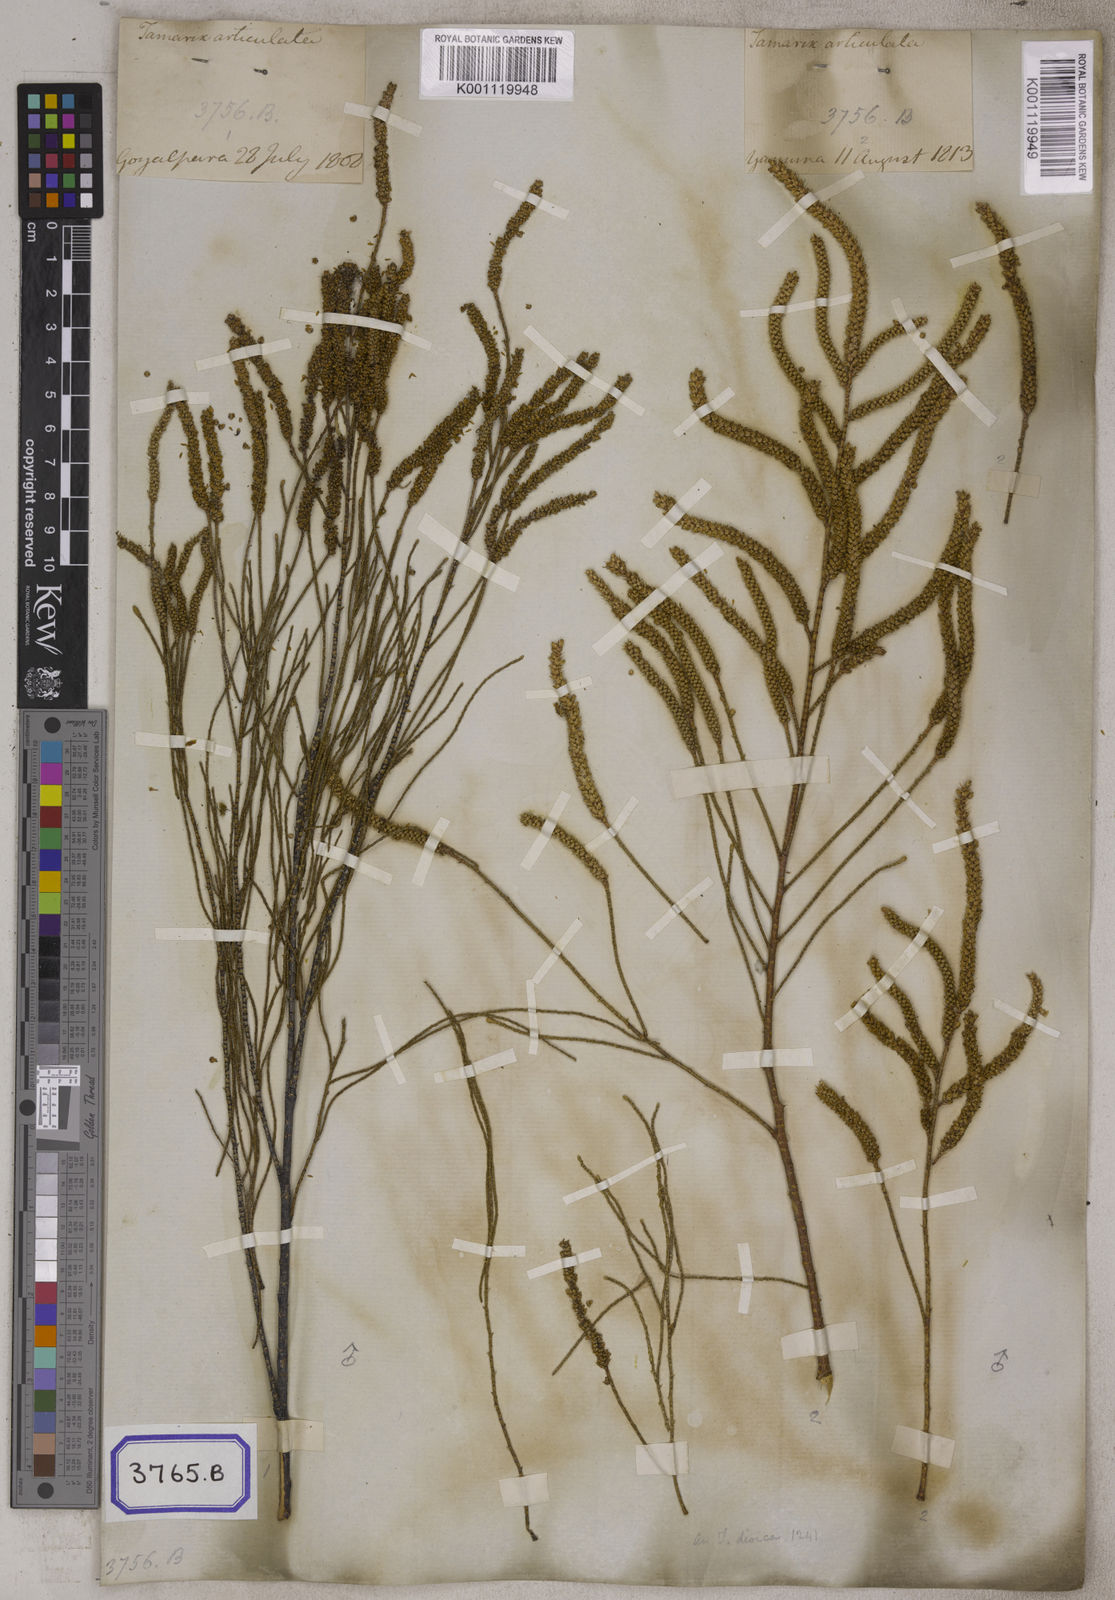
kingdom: Plantae
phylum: Tracheophyta
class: Magnoliopsida
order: Caryophyllales
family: Tamaricaceae
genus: Tamarix
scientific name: Tamarix aphylla
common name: Athel tamarisk
